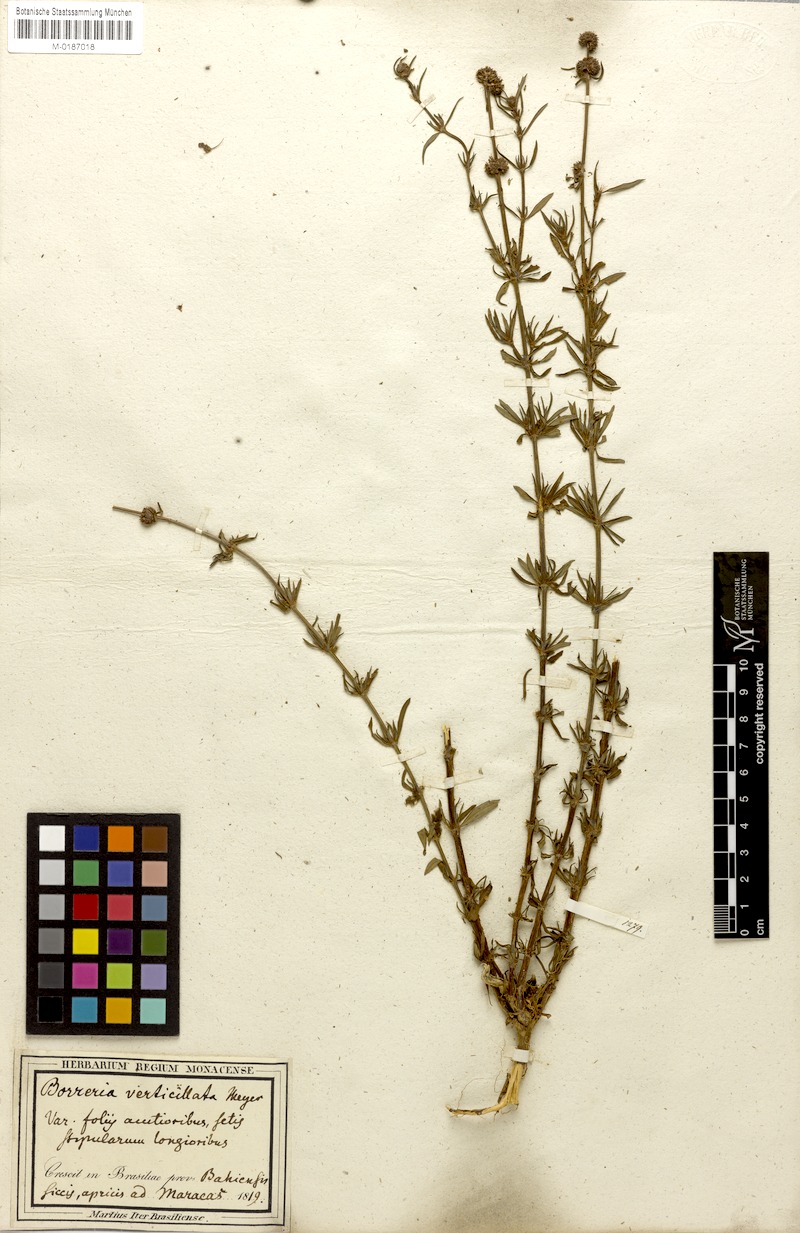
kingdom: Plantae
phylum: Tracheophyta
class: Magnoliopsida
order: Gentianales
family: Rubiaceae
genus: Spermacoce
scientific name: Spermacoce verticillata
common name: Shrubby false buttonweed
